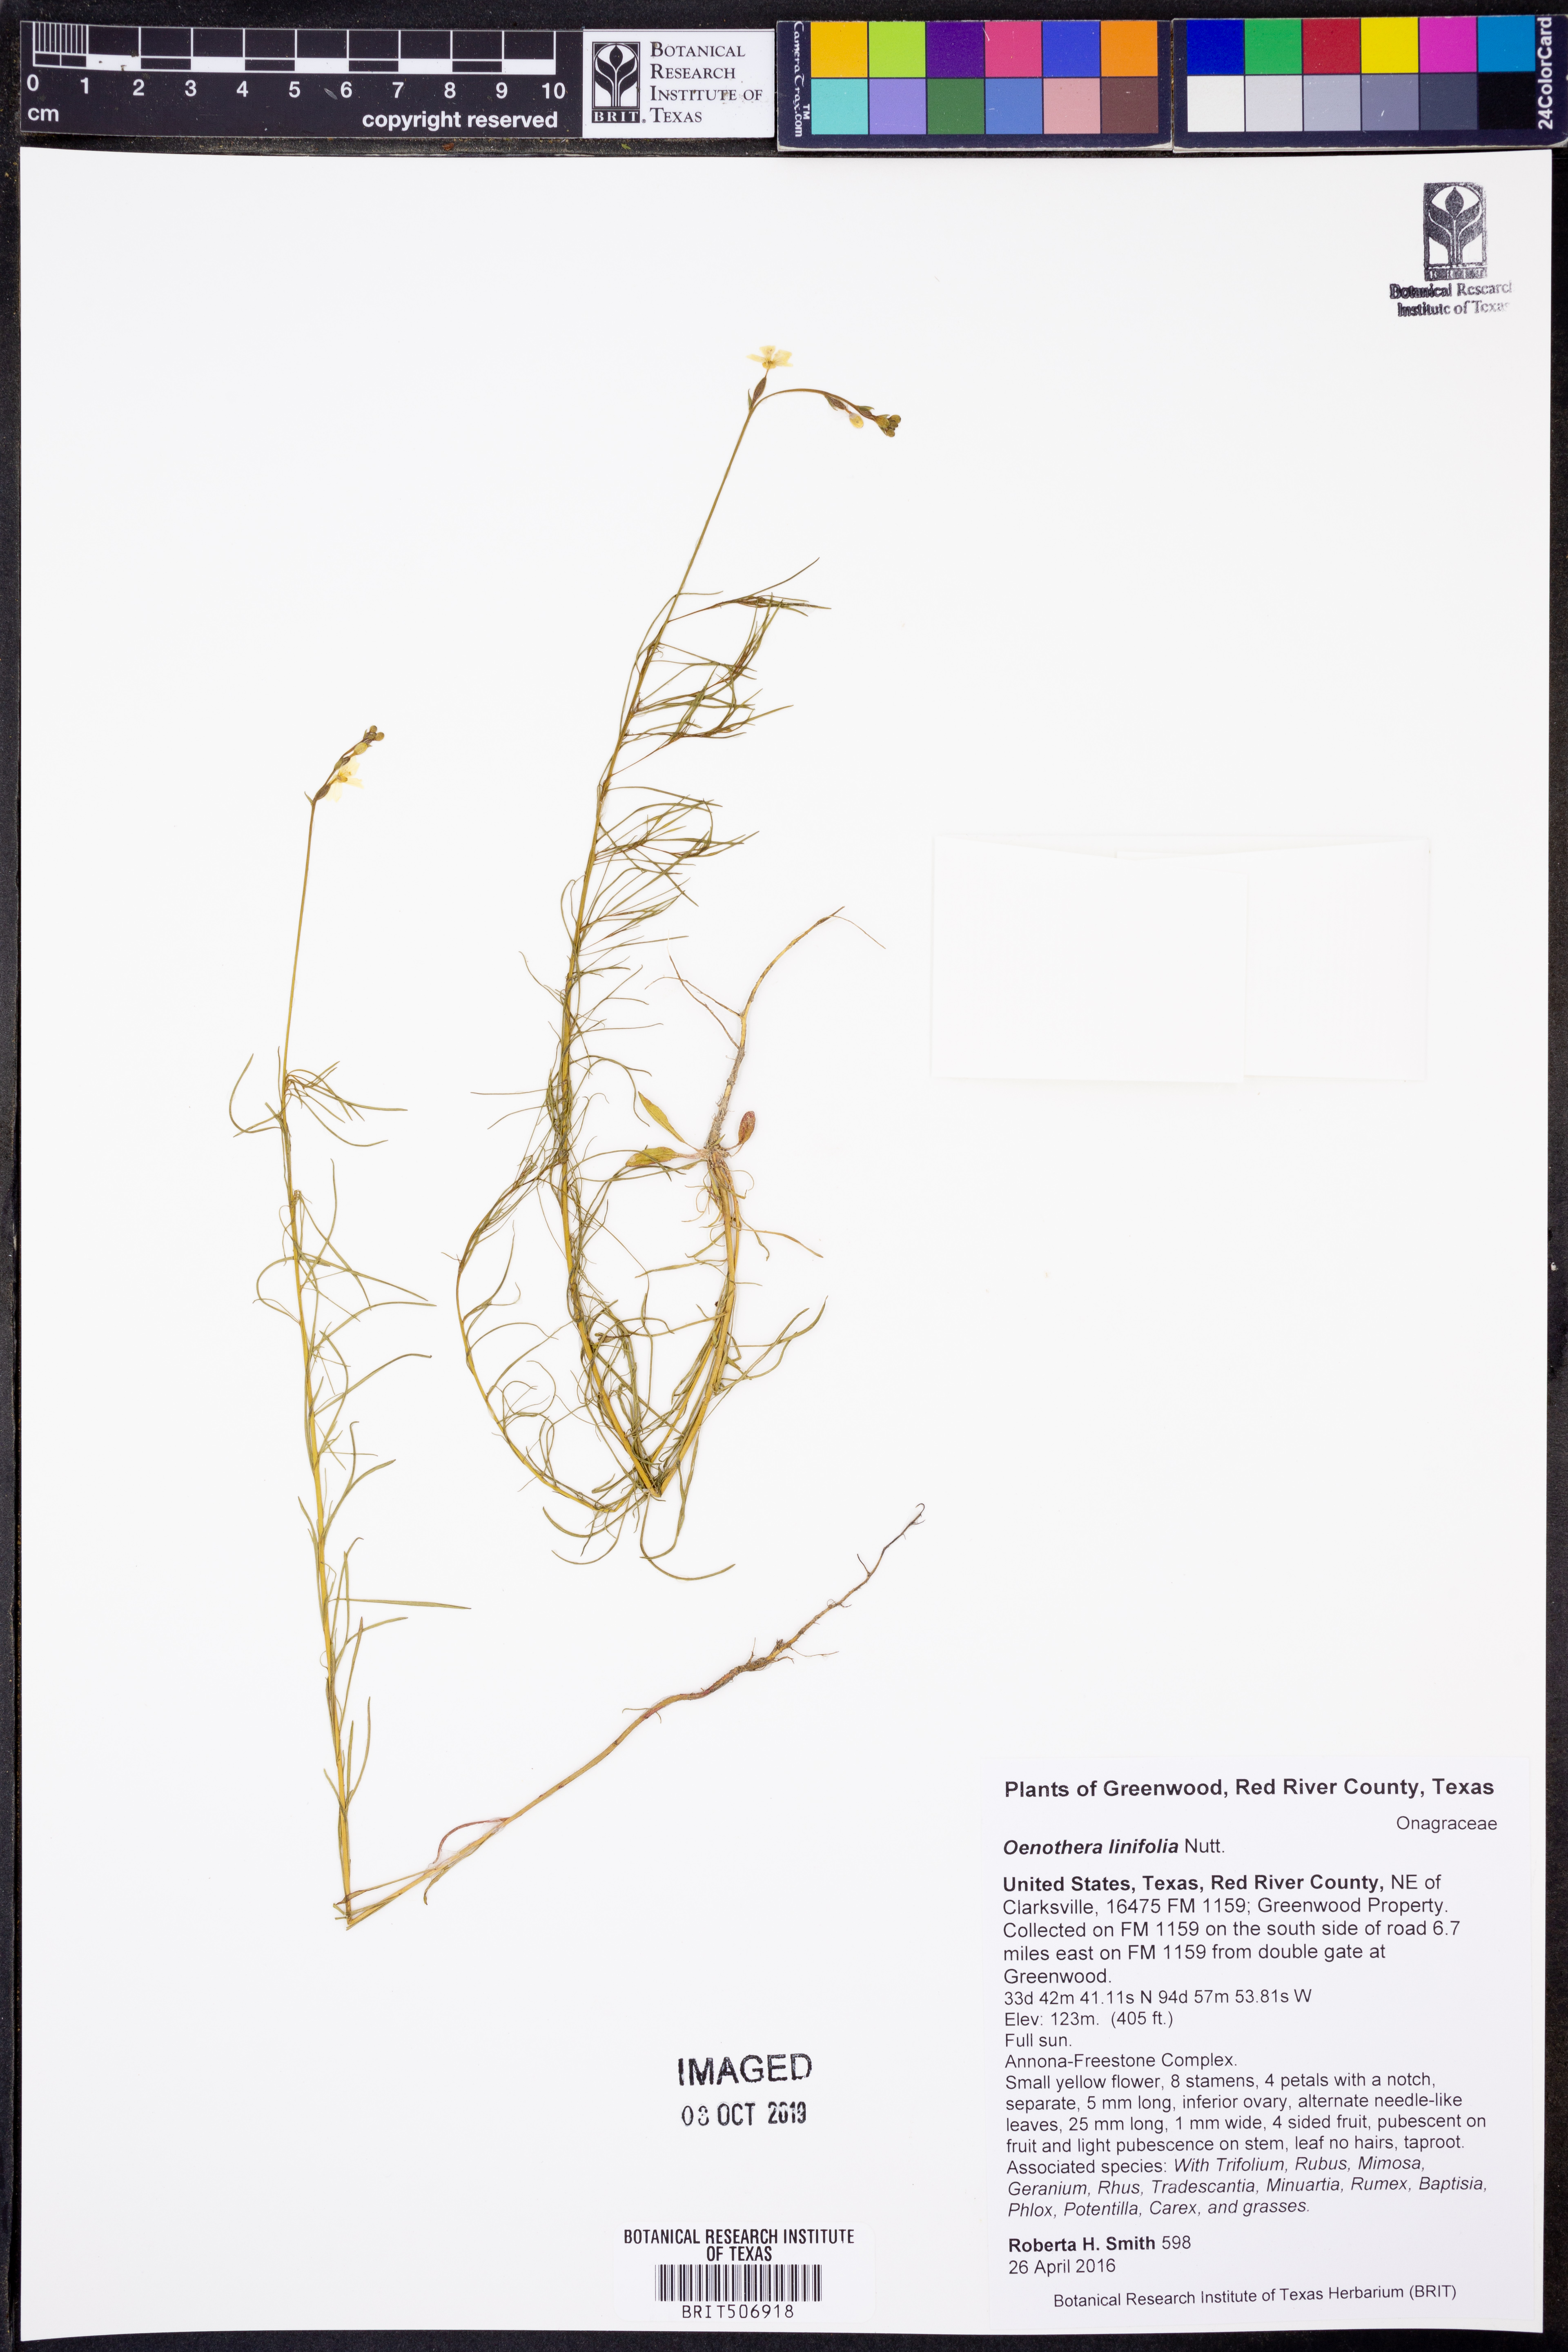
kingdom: Plantae
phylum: Tracheophyta
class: Magnoliopsida
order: Myrtales
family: Onagraceae
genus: Oenothera
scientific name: Oenothera linifolia
